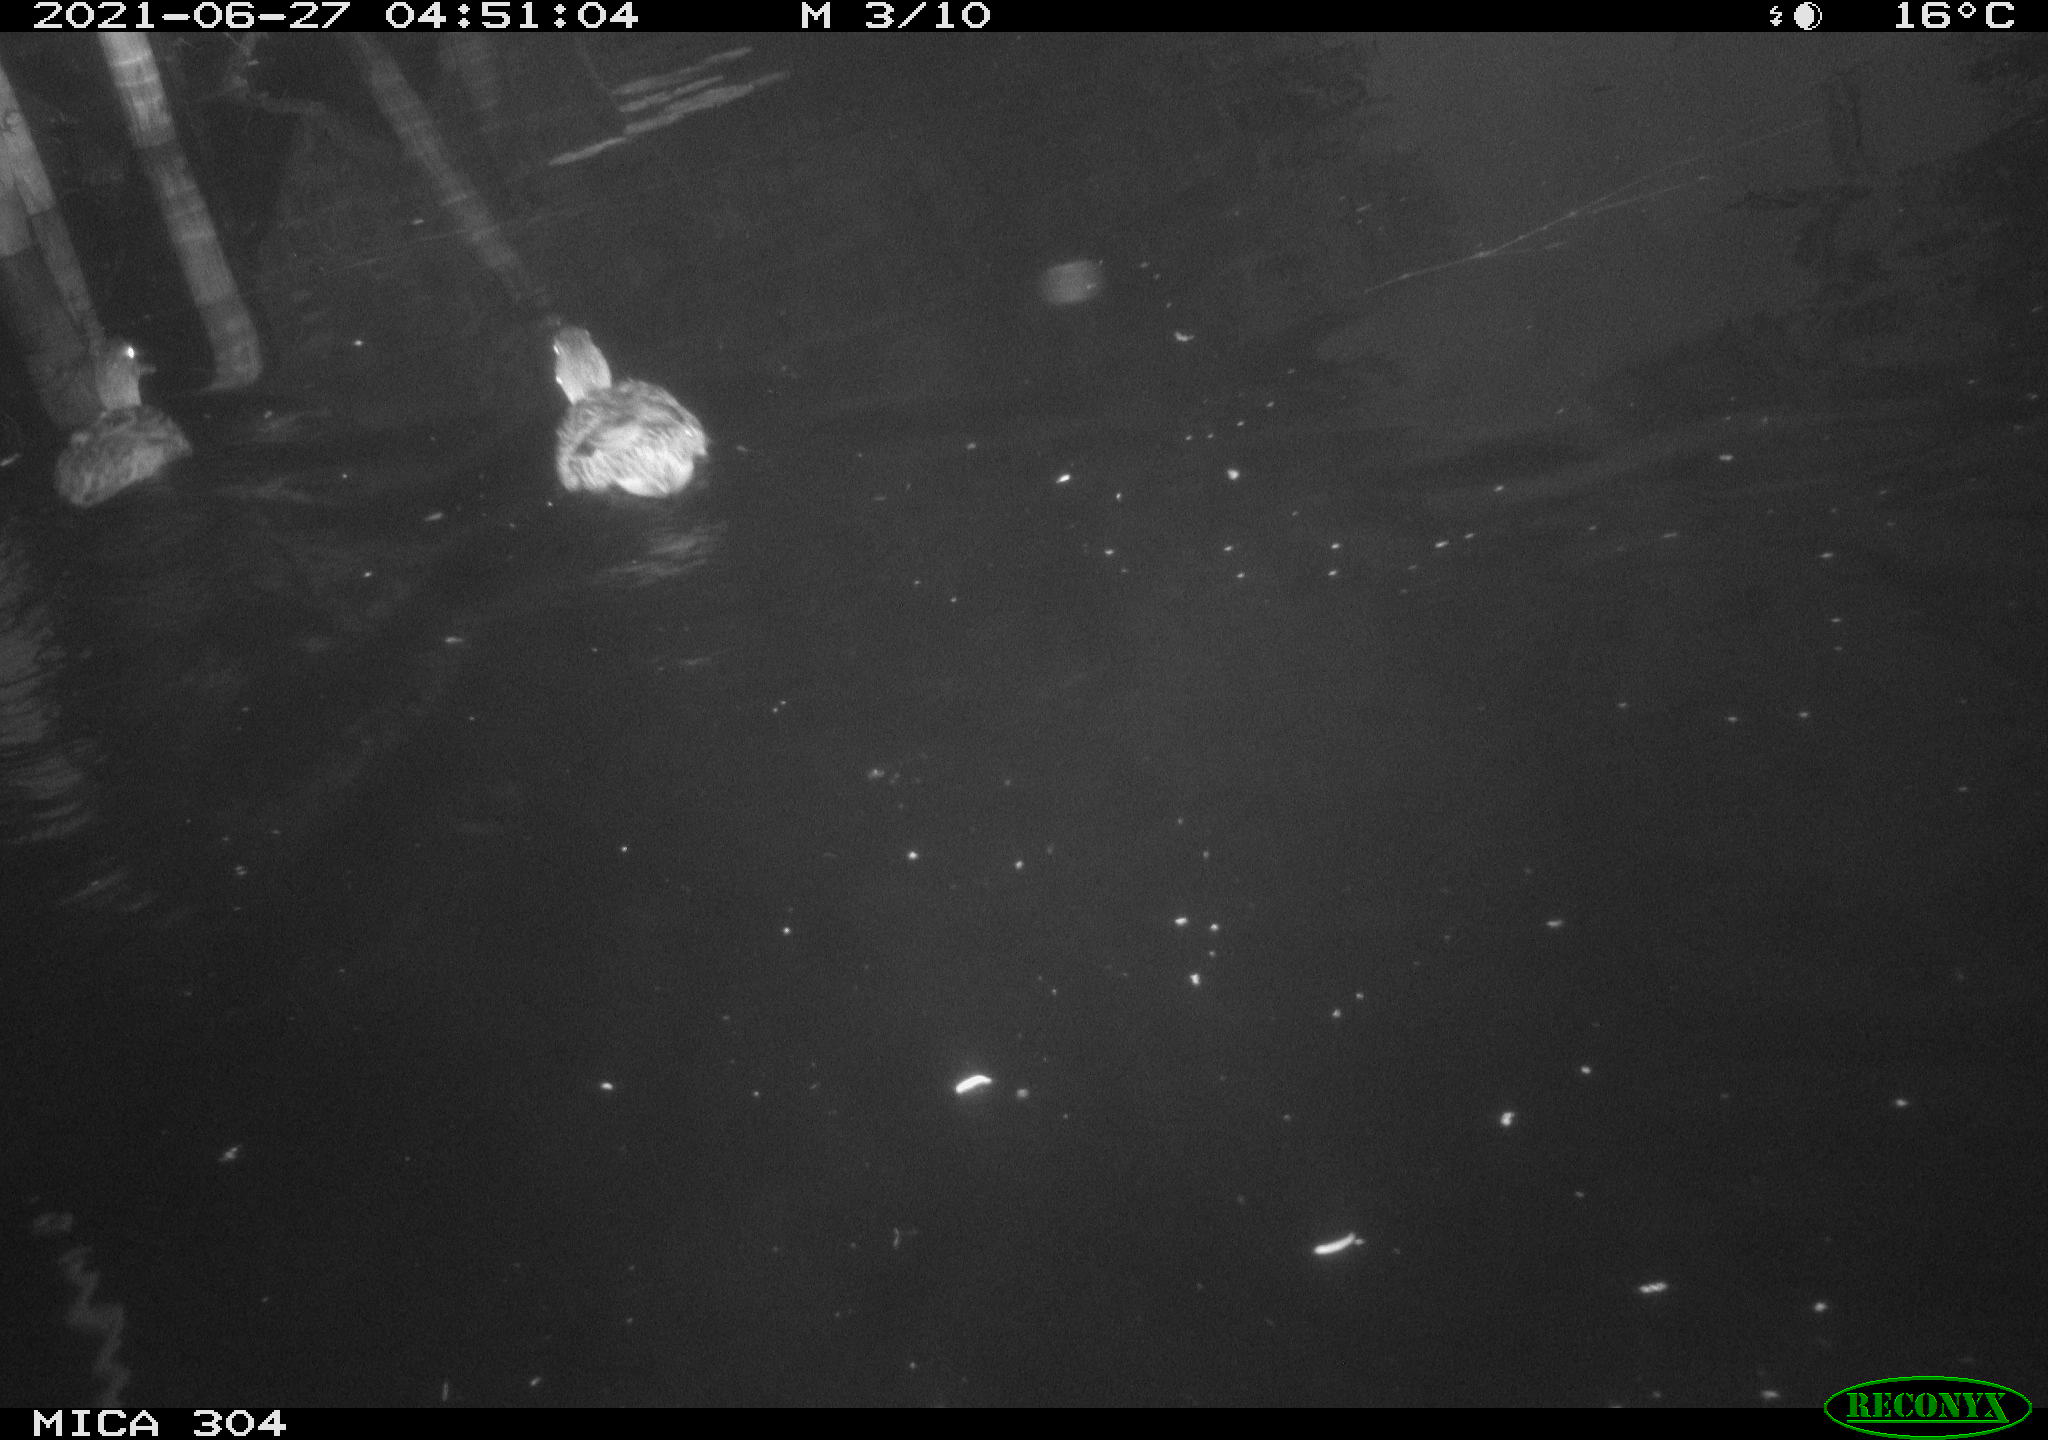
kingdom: Animalia
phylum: Chordata
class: Aves
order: Anseriformes
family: Anatidae
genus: Mareca
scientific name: Mareca strepera
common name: Gadwall
